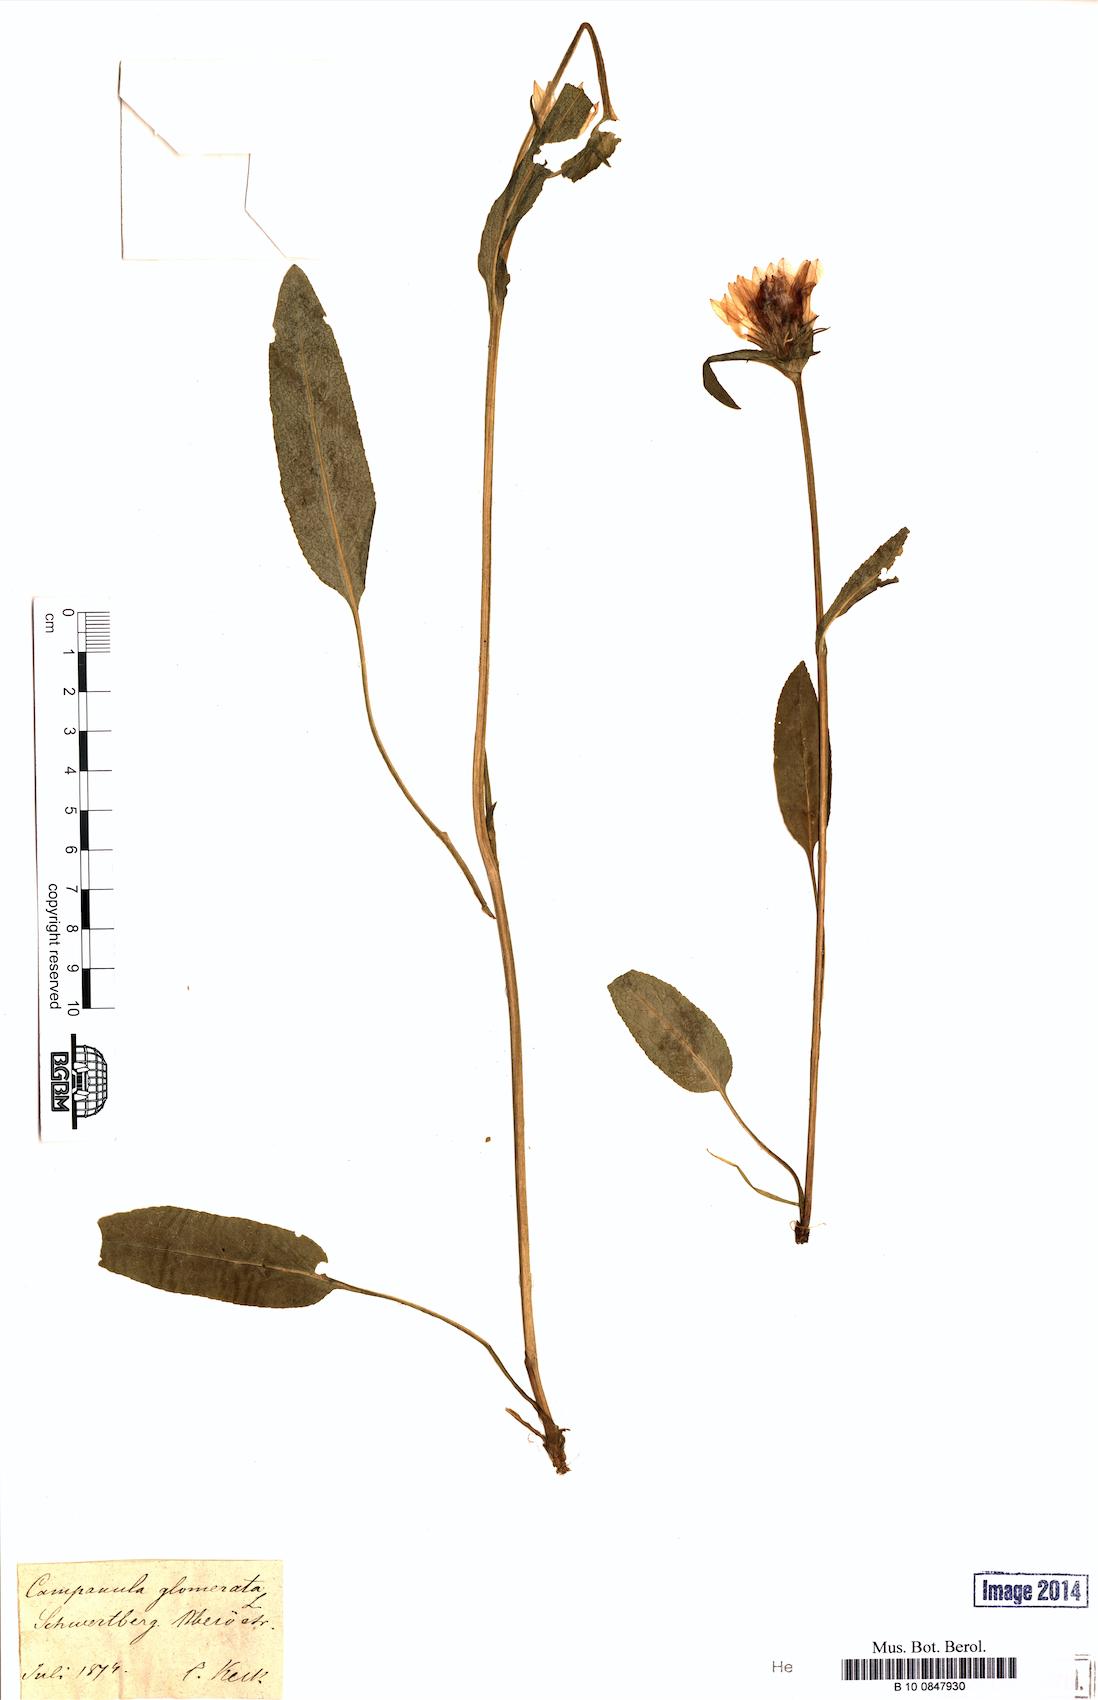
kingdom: Plantae
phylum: Tracheophyta
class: Magnoliopsida
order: Asterales
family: Campanulaceae
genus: Campanula
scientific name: Campanula glomerata
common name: Clustered bellflower
